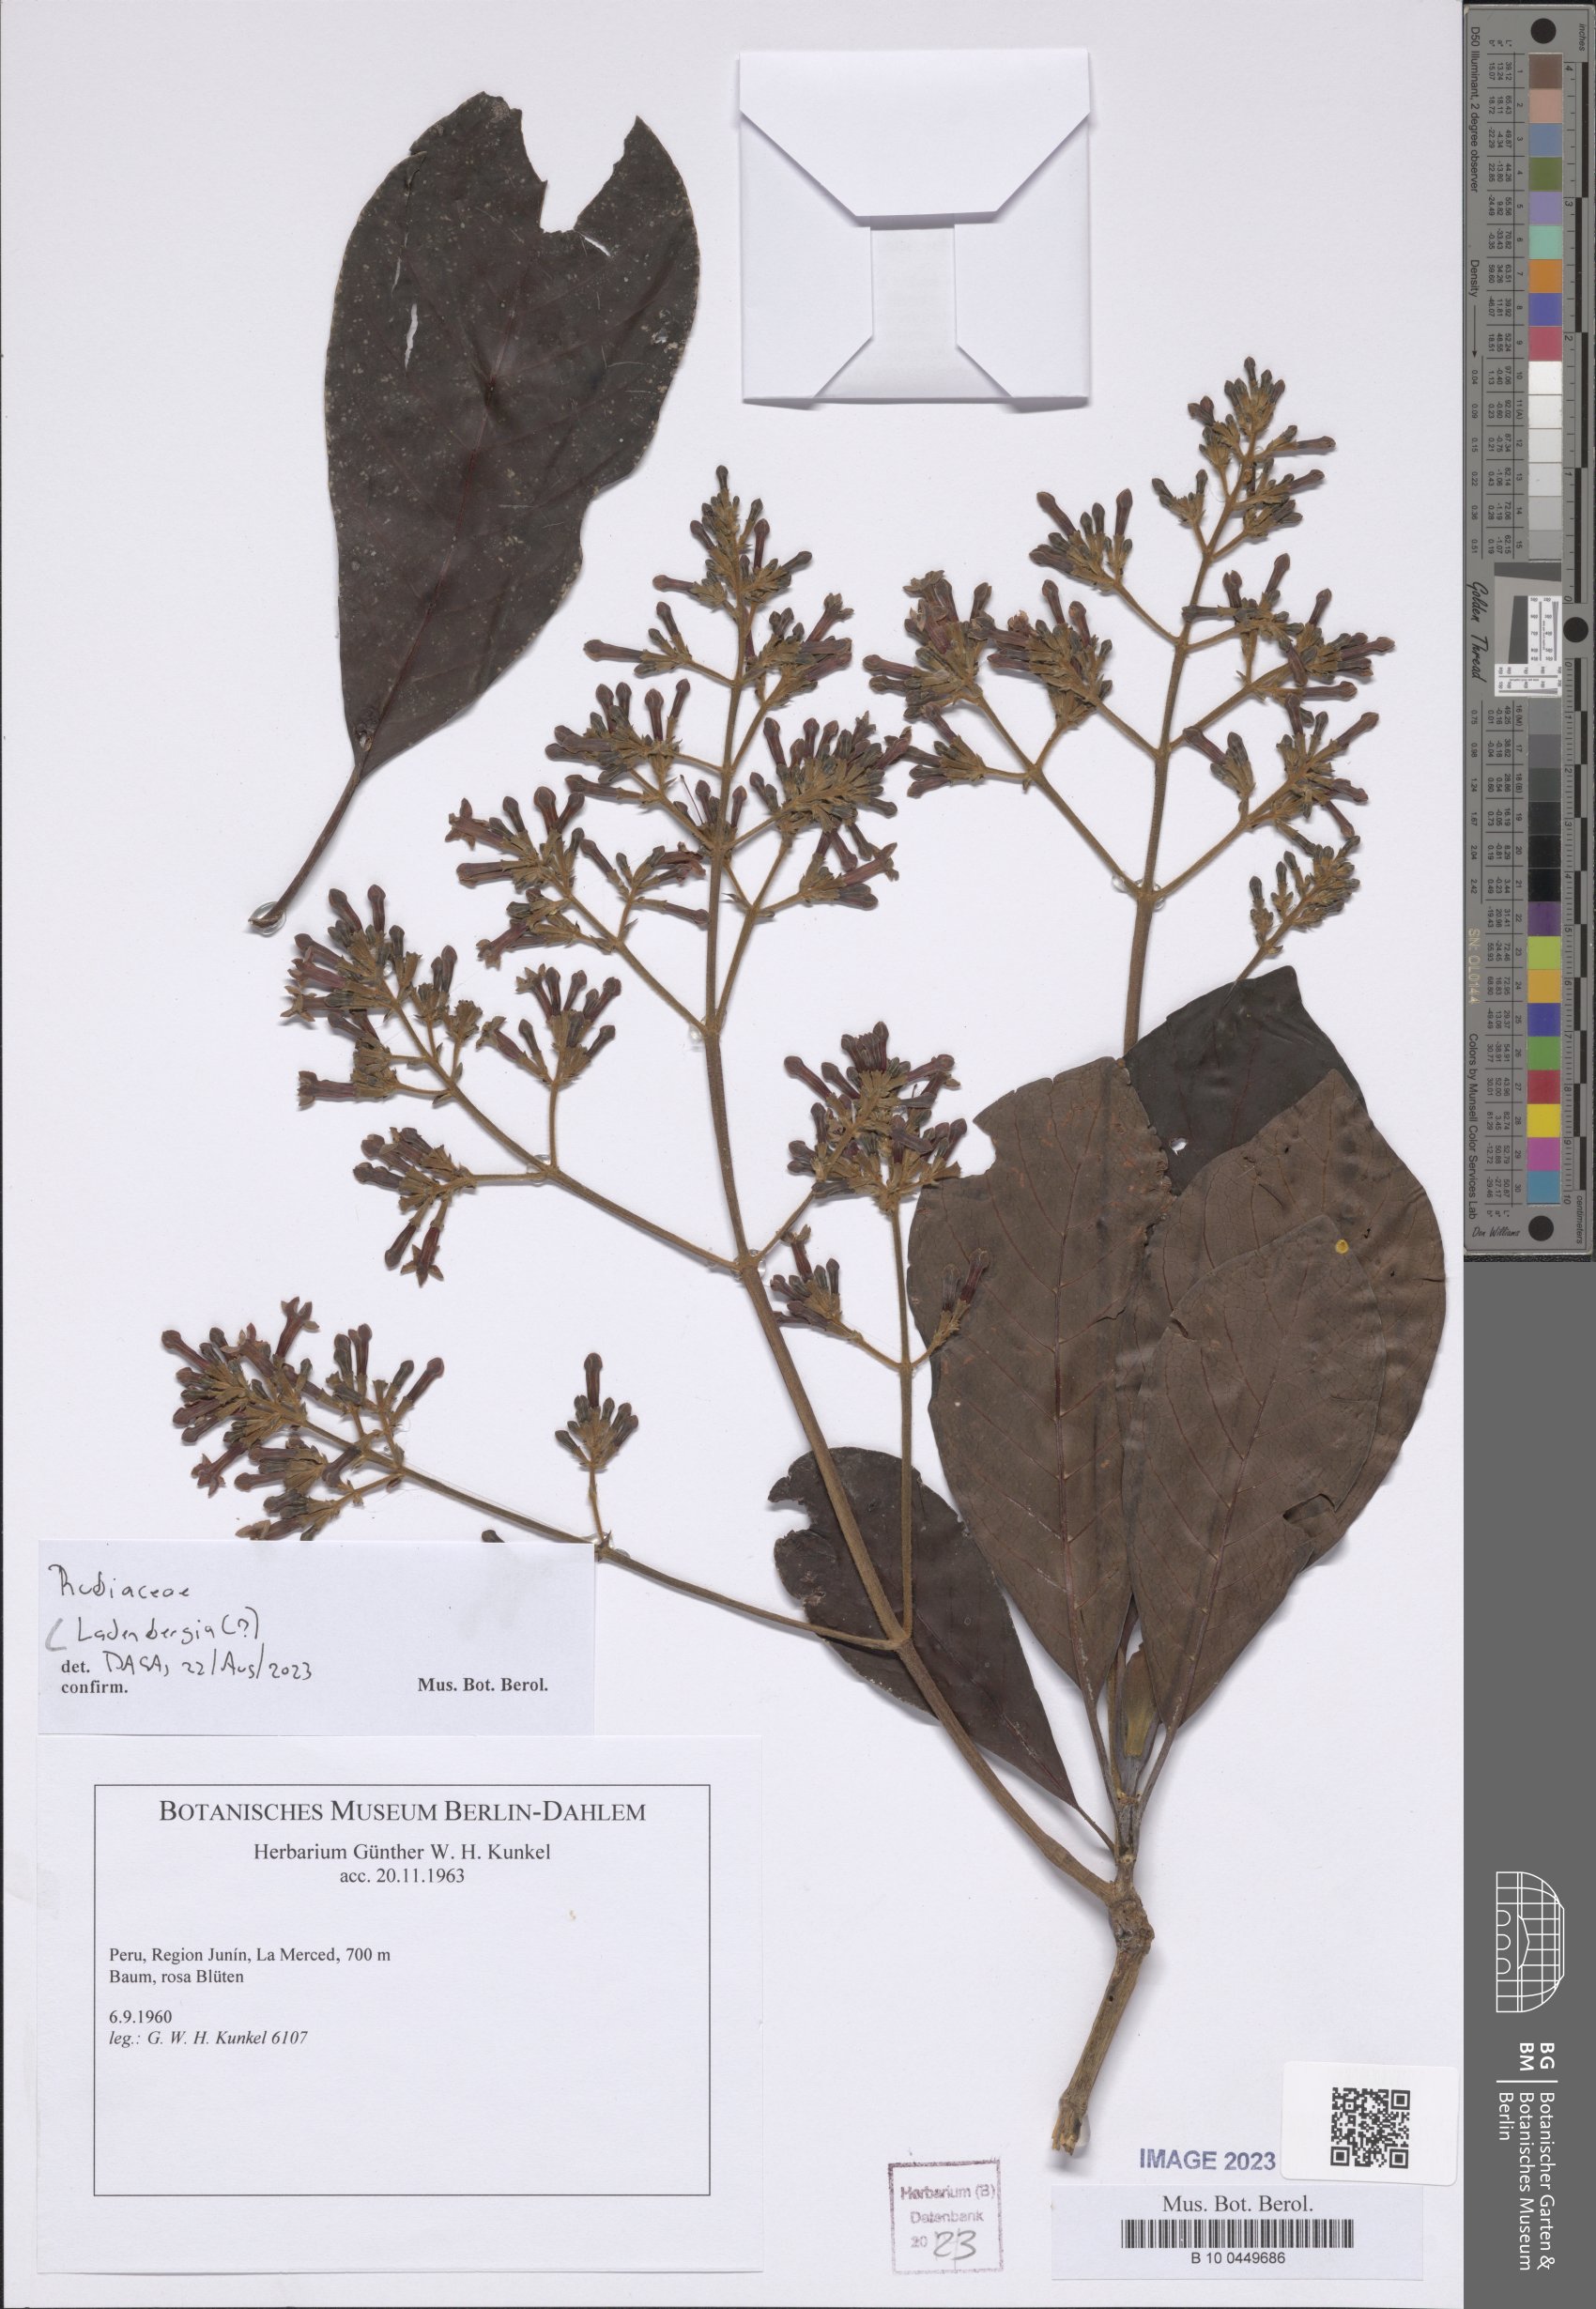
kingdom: Plantae
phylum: Tracheophyta
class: Magnoliopsida
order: Gentianales
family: Rubiaceae
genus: Ladenbergia
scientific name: Ladenbergia
